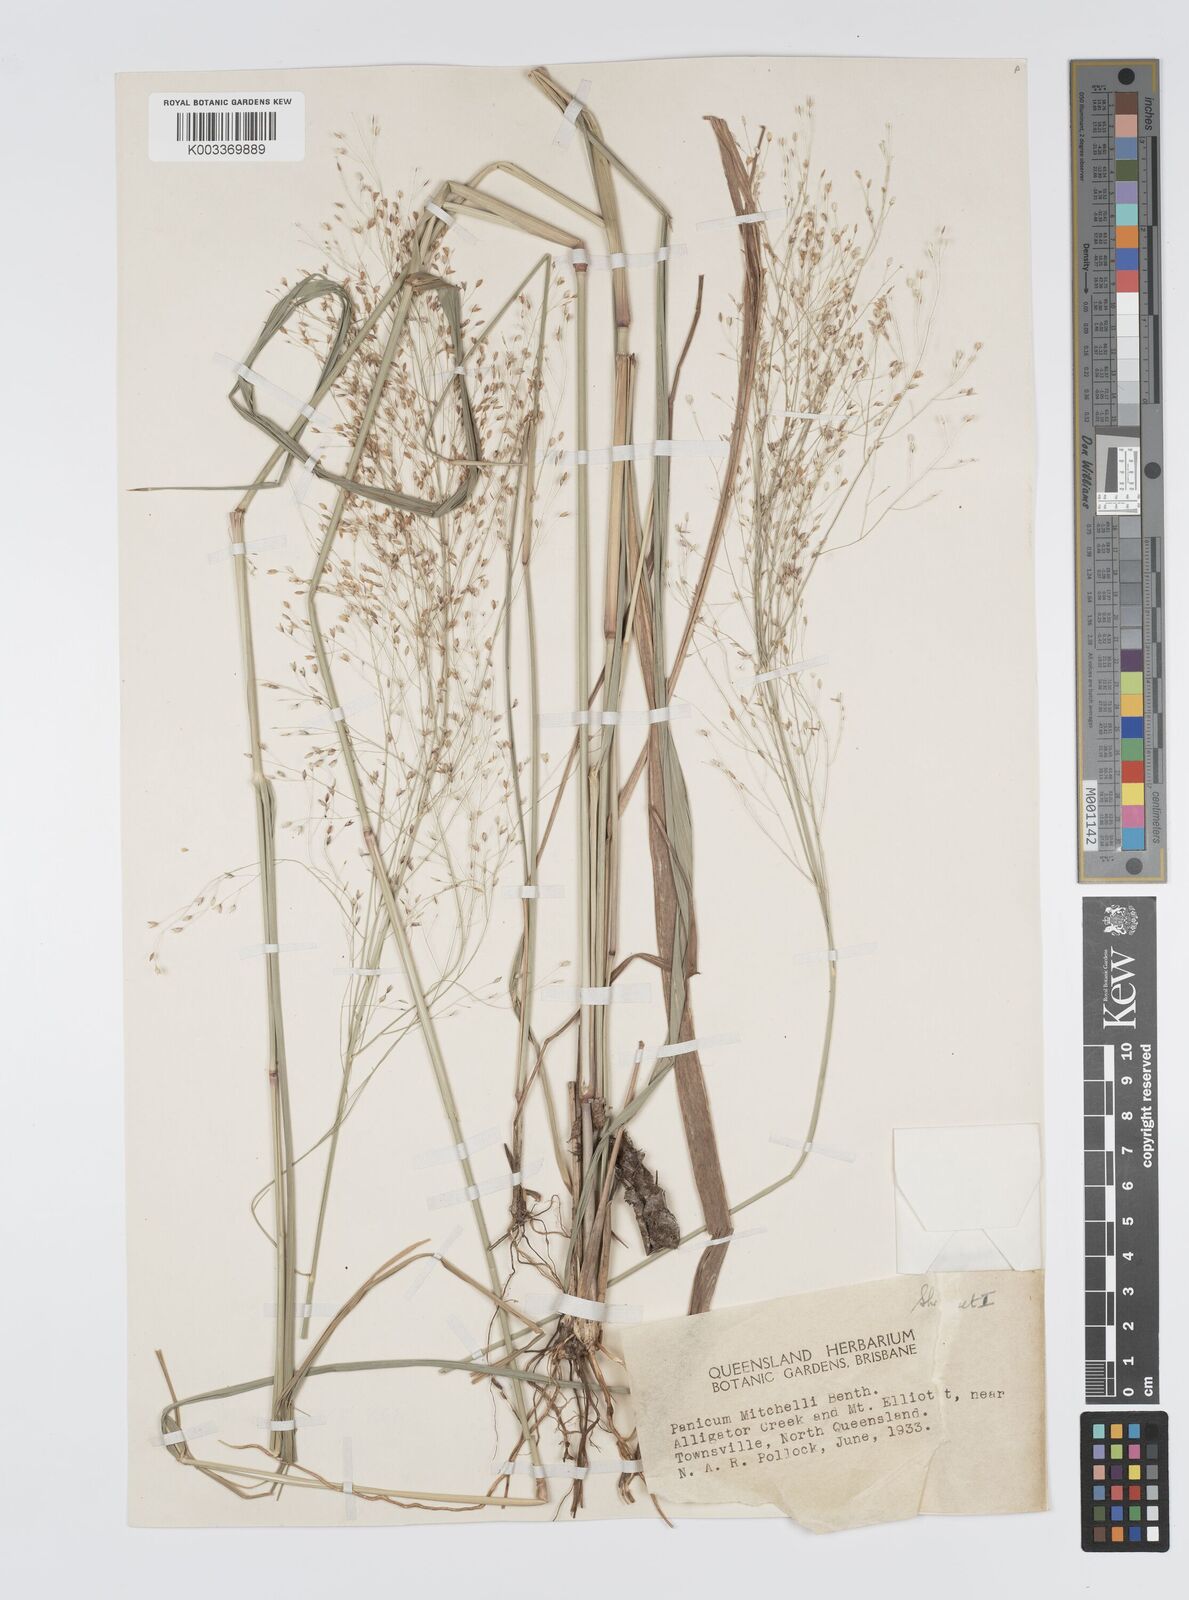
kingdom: Plantae
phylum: Tracheophyta
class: Liliopsida
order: Poales
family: Poaceae
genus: Panicum
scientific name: Panicum mitchellii
